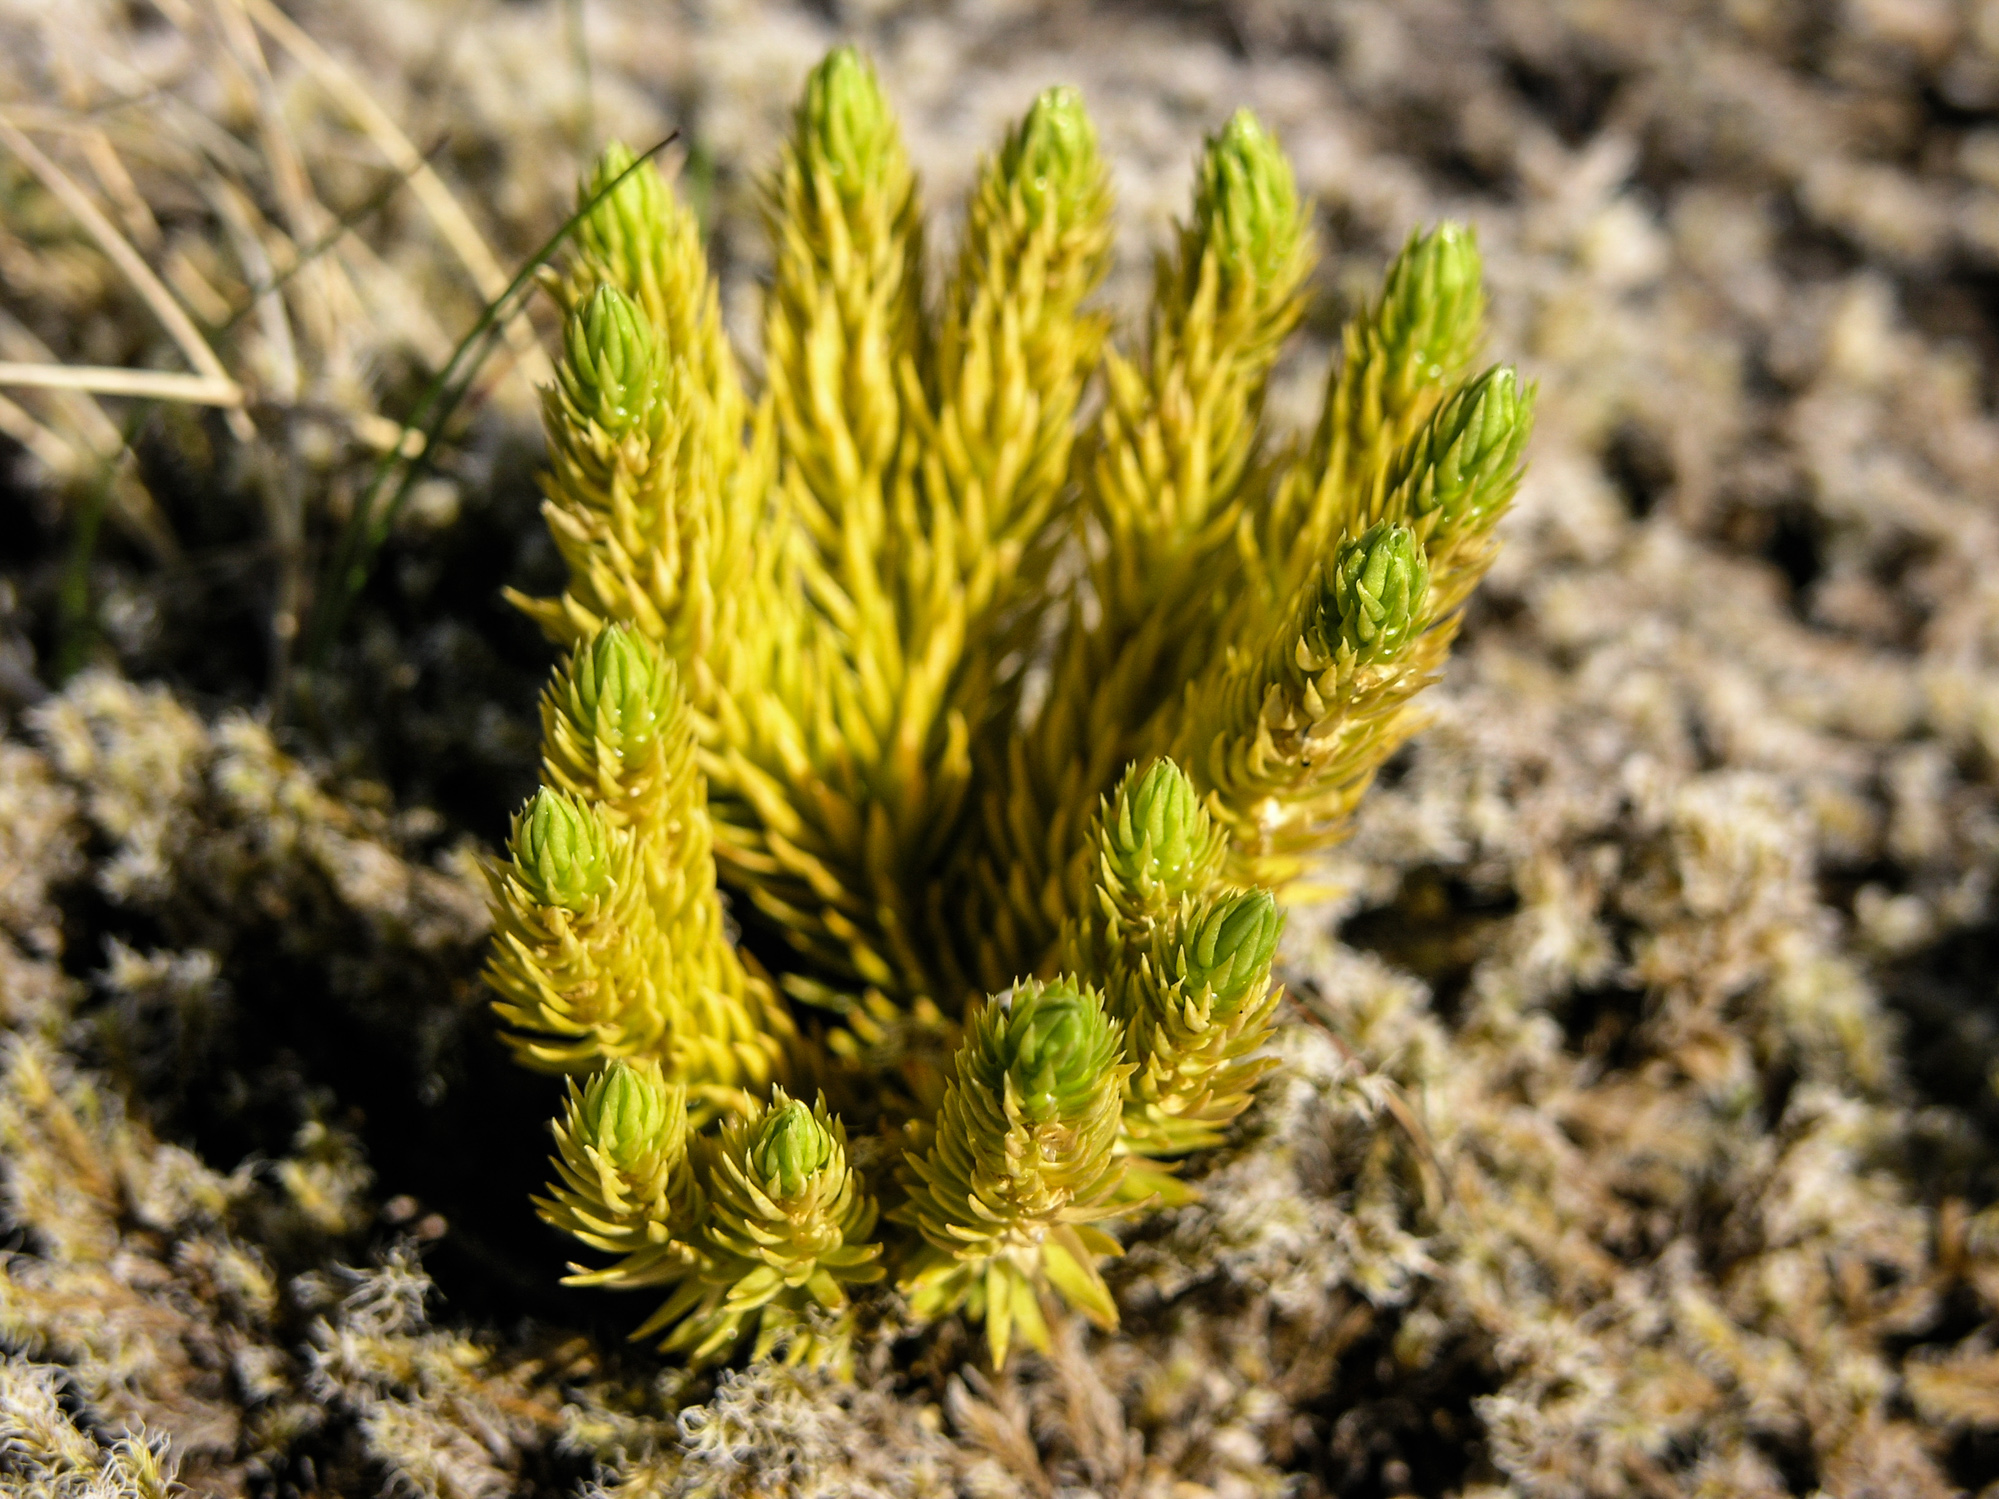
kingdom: Plantae
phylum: Tracheophyta
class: Lycopodiopsida
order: Lycopodiales
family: Lycopodiaceae
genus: Huperzia
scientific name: Huperzia selago
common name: Northern firmoss
